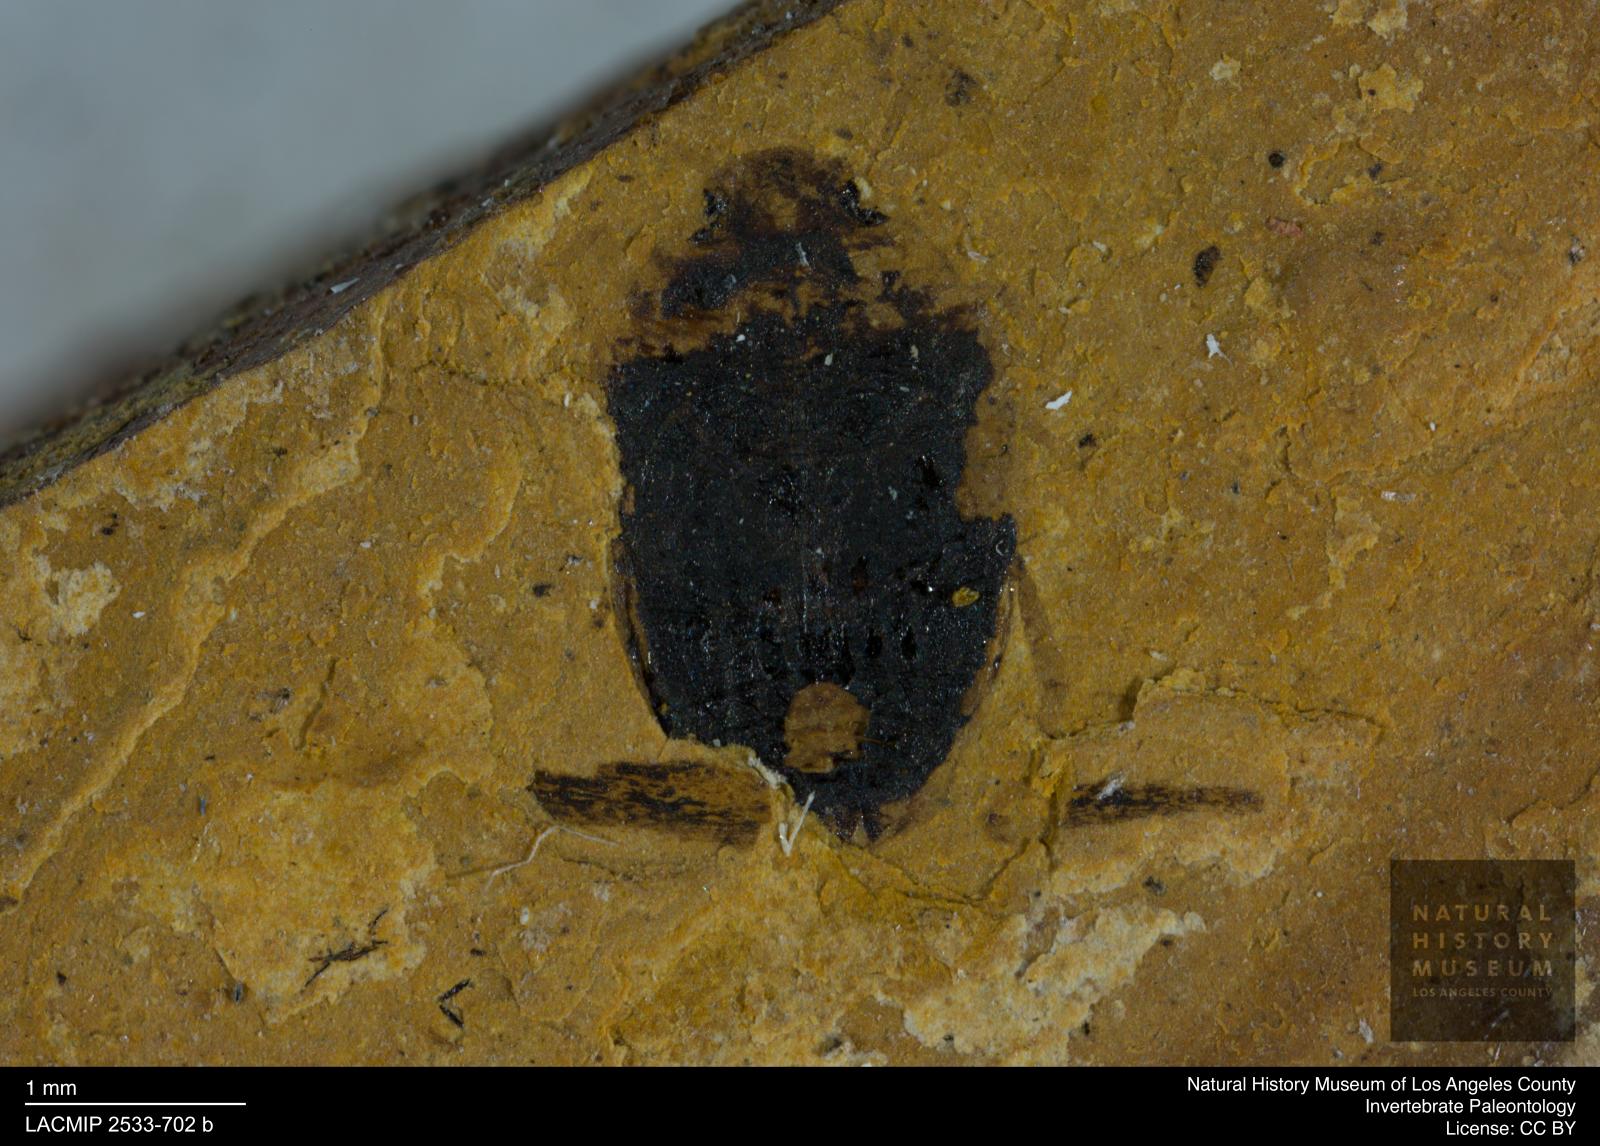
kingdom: Animalia
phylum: Arthropoda
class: Insecta
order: Coleoptera
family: Dytiscidae
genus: Oreodytes
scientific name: Oreodytes cryptolineatus
